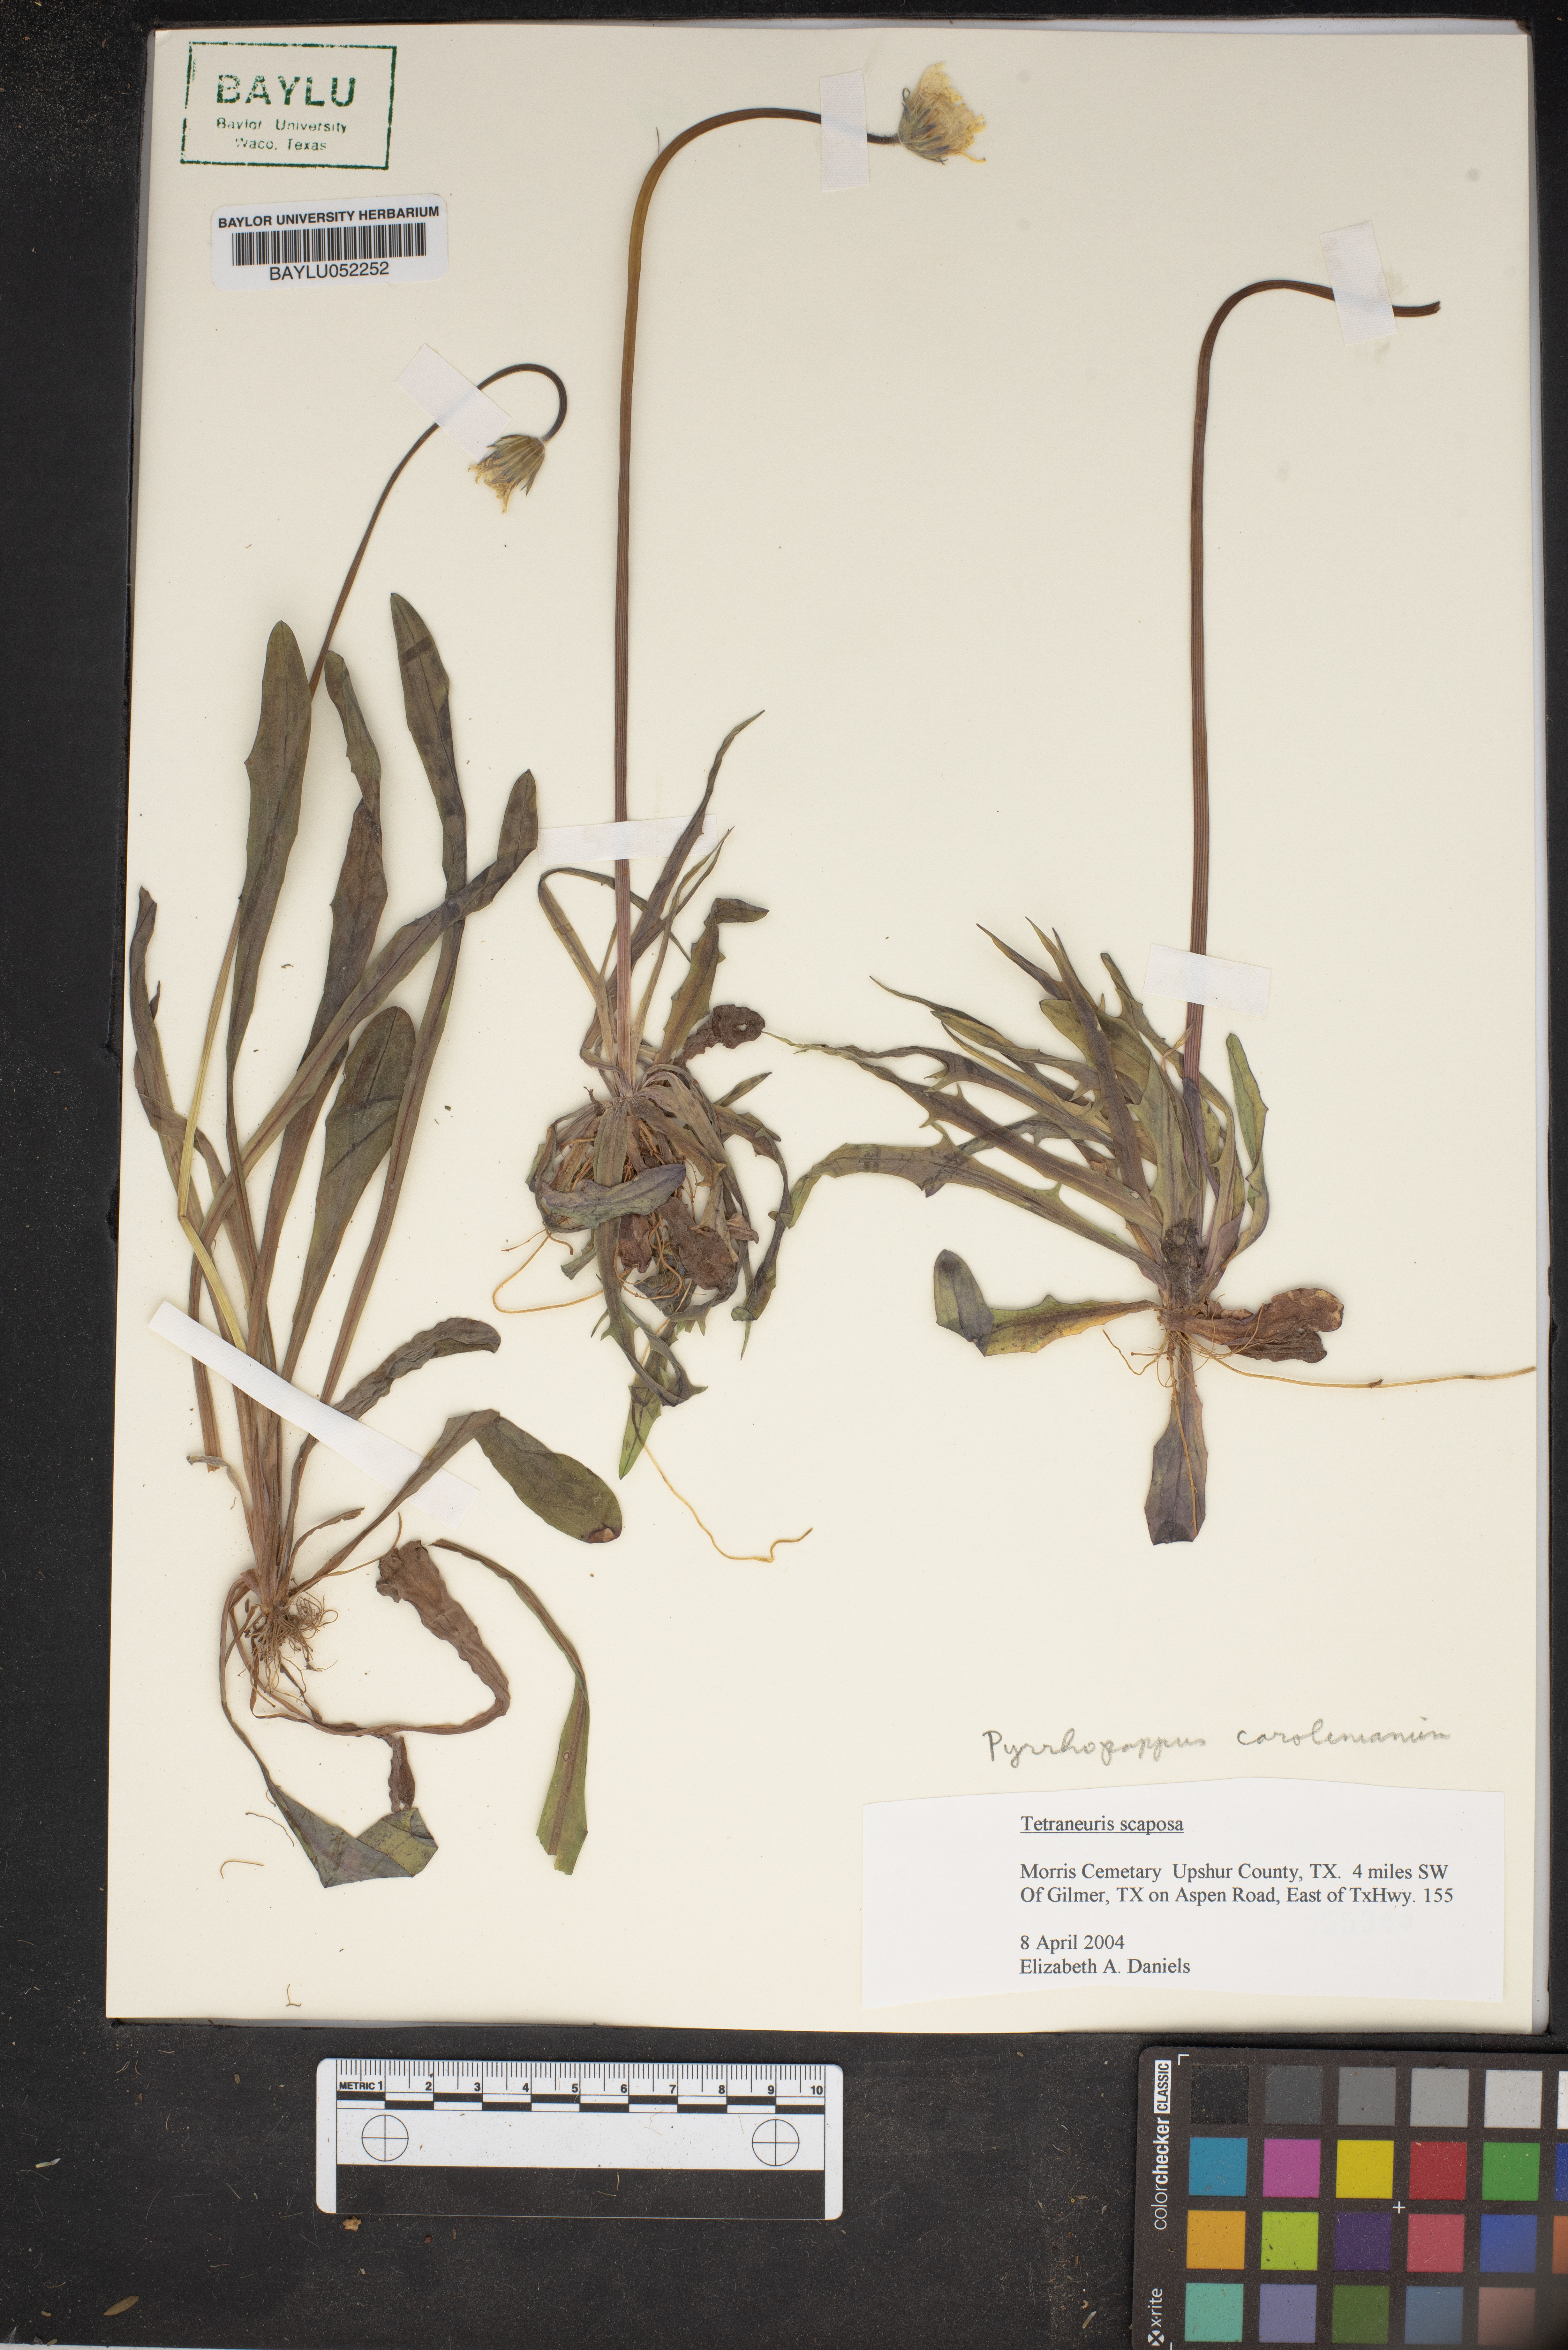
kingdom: Plantae
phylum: Tracheophyta
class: Magnoliopsida
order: Asterales
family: Asteraceae
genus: Pyrrhopappus
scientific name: Pyrrhopappus carolinianus
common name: Carolina desert-chicory
